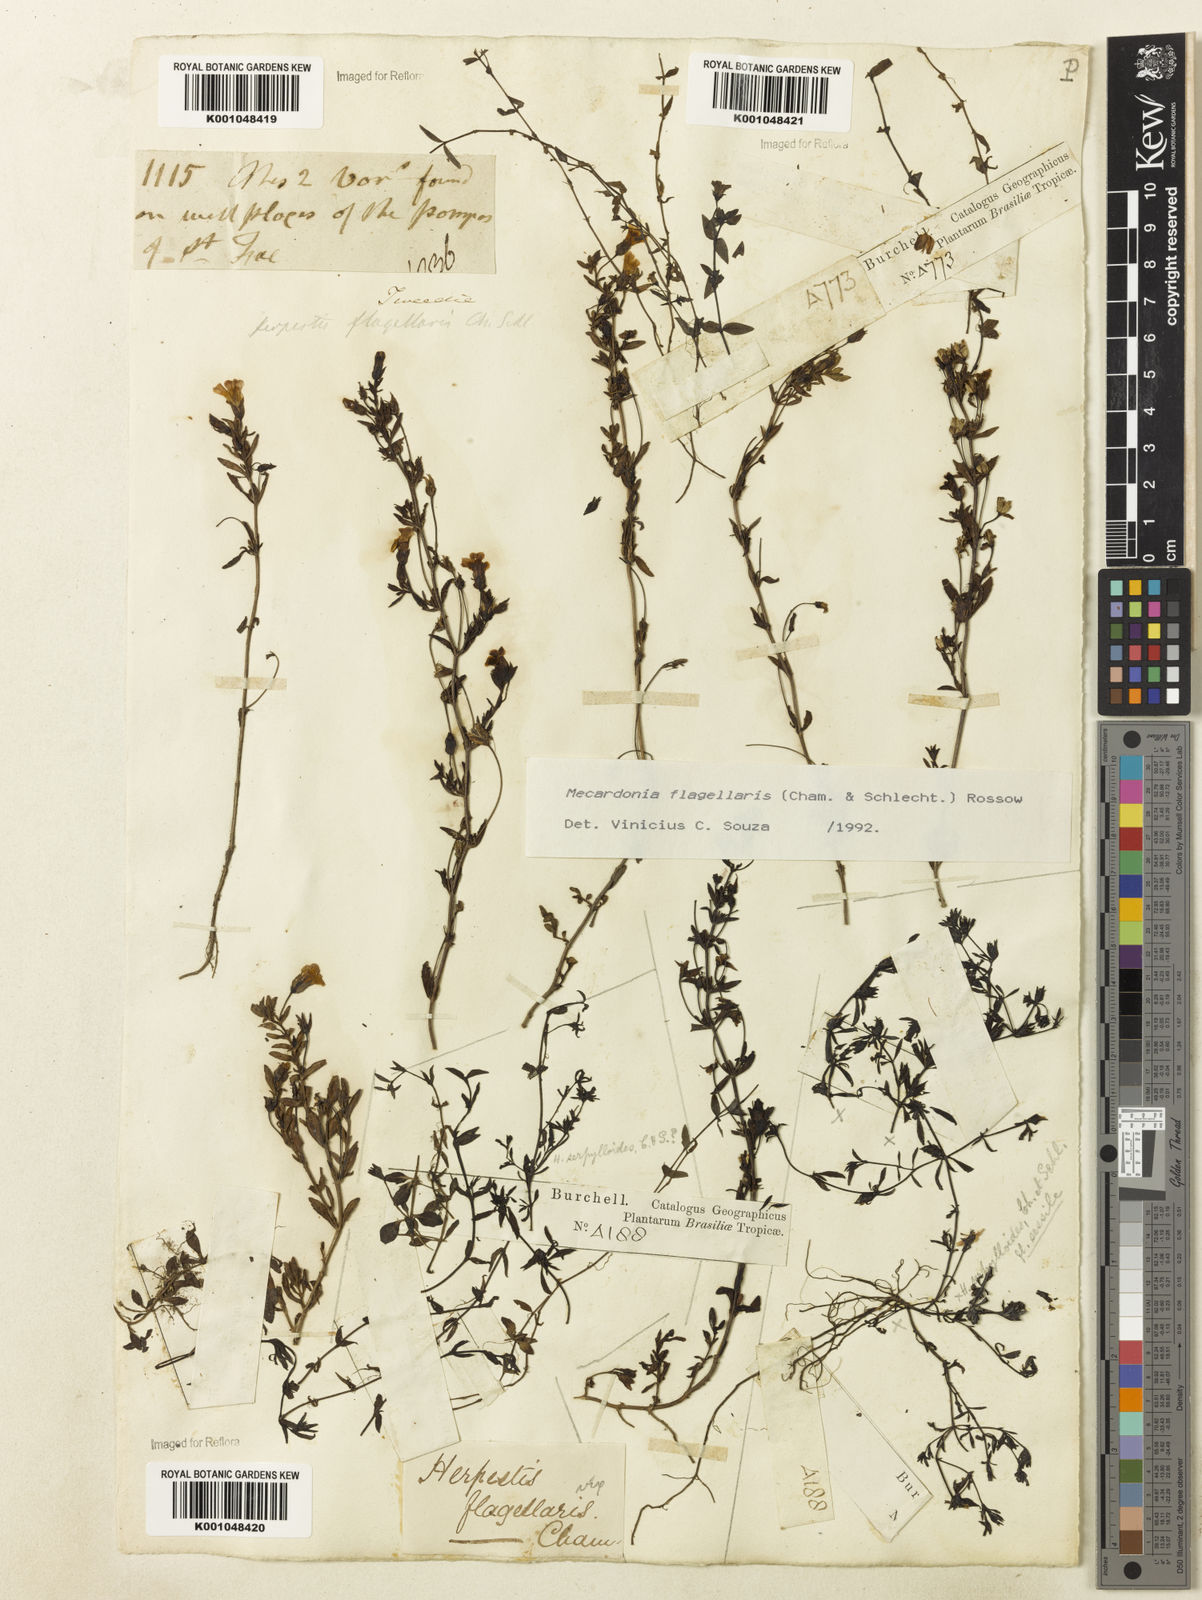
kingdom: Plantae
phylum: Tracheophyta
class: Magnoliopsida
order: Lamiales
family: Plantaginaceae
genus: Mecardonia
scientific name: Mecardonia flagellaris
